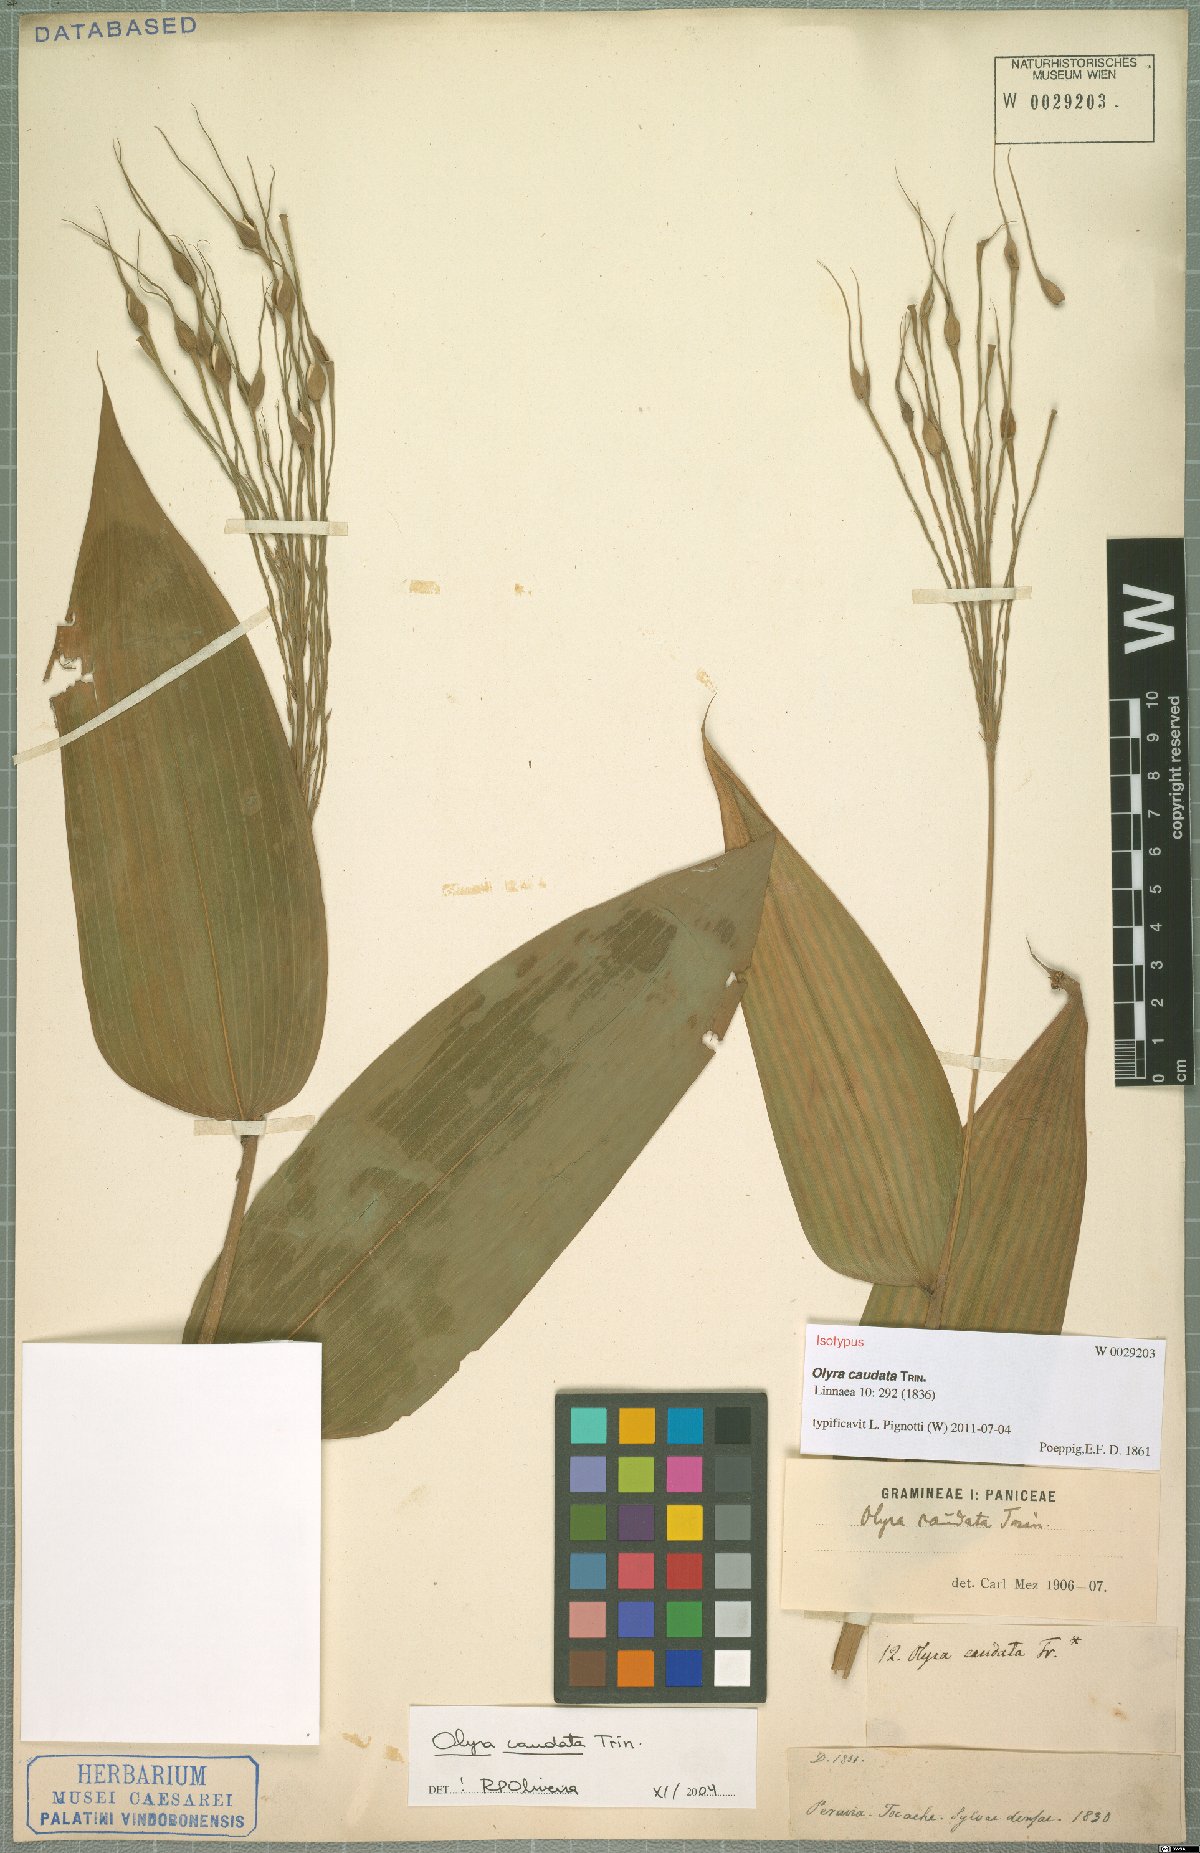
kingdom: Plantae
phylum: Tracheophyta
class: Liliopsida
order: Poales
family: Poaceae
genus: Olyra
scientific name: Olyra caudata
